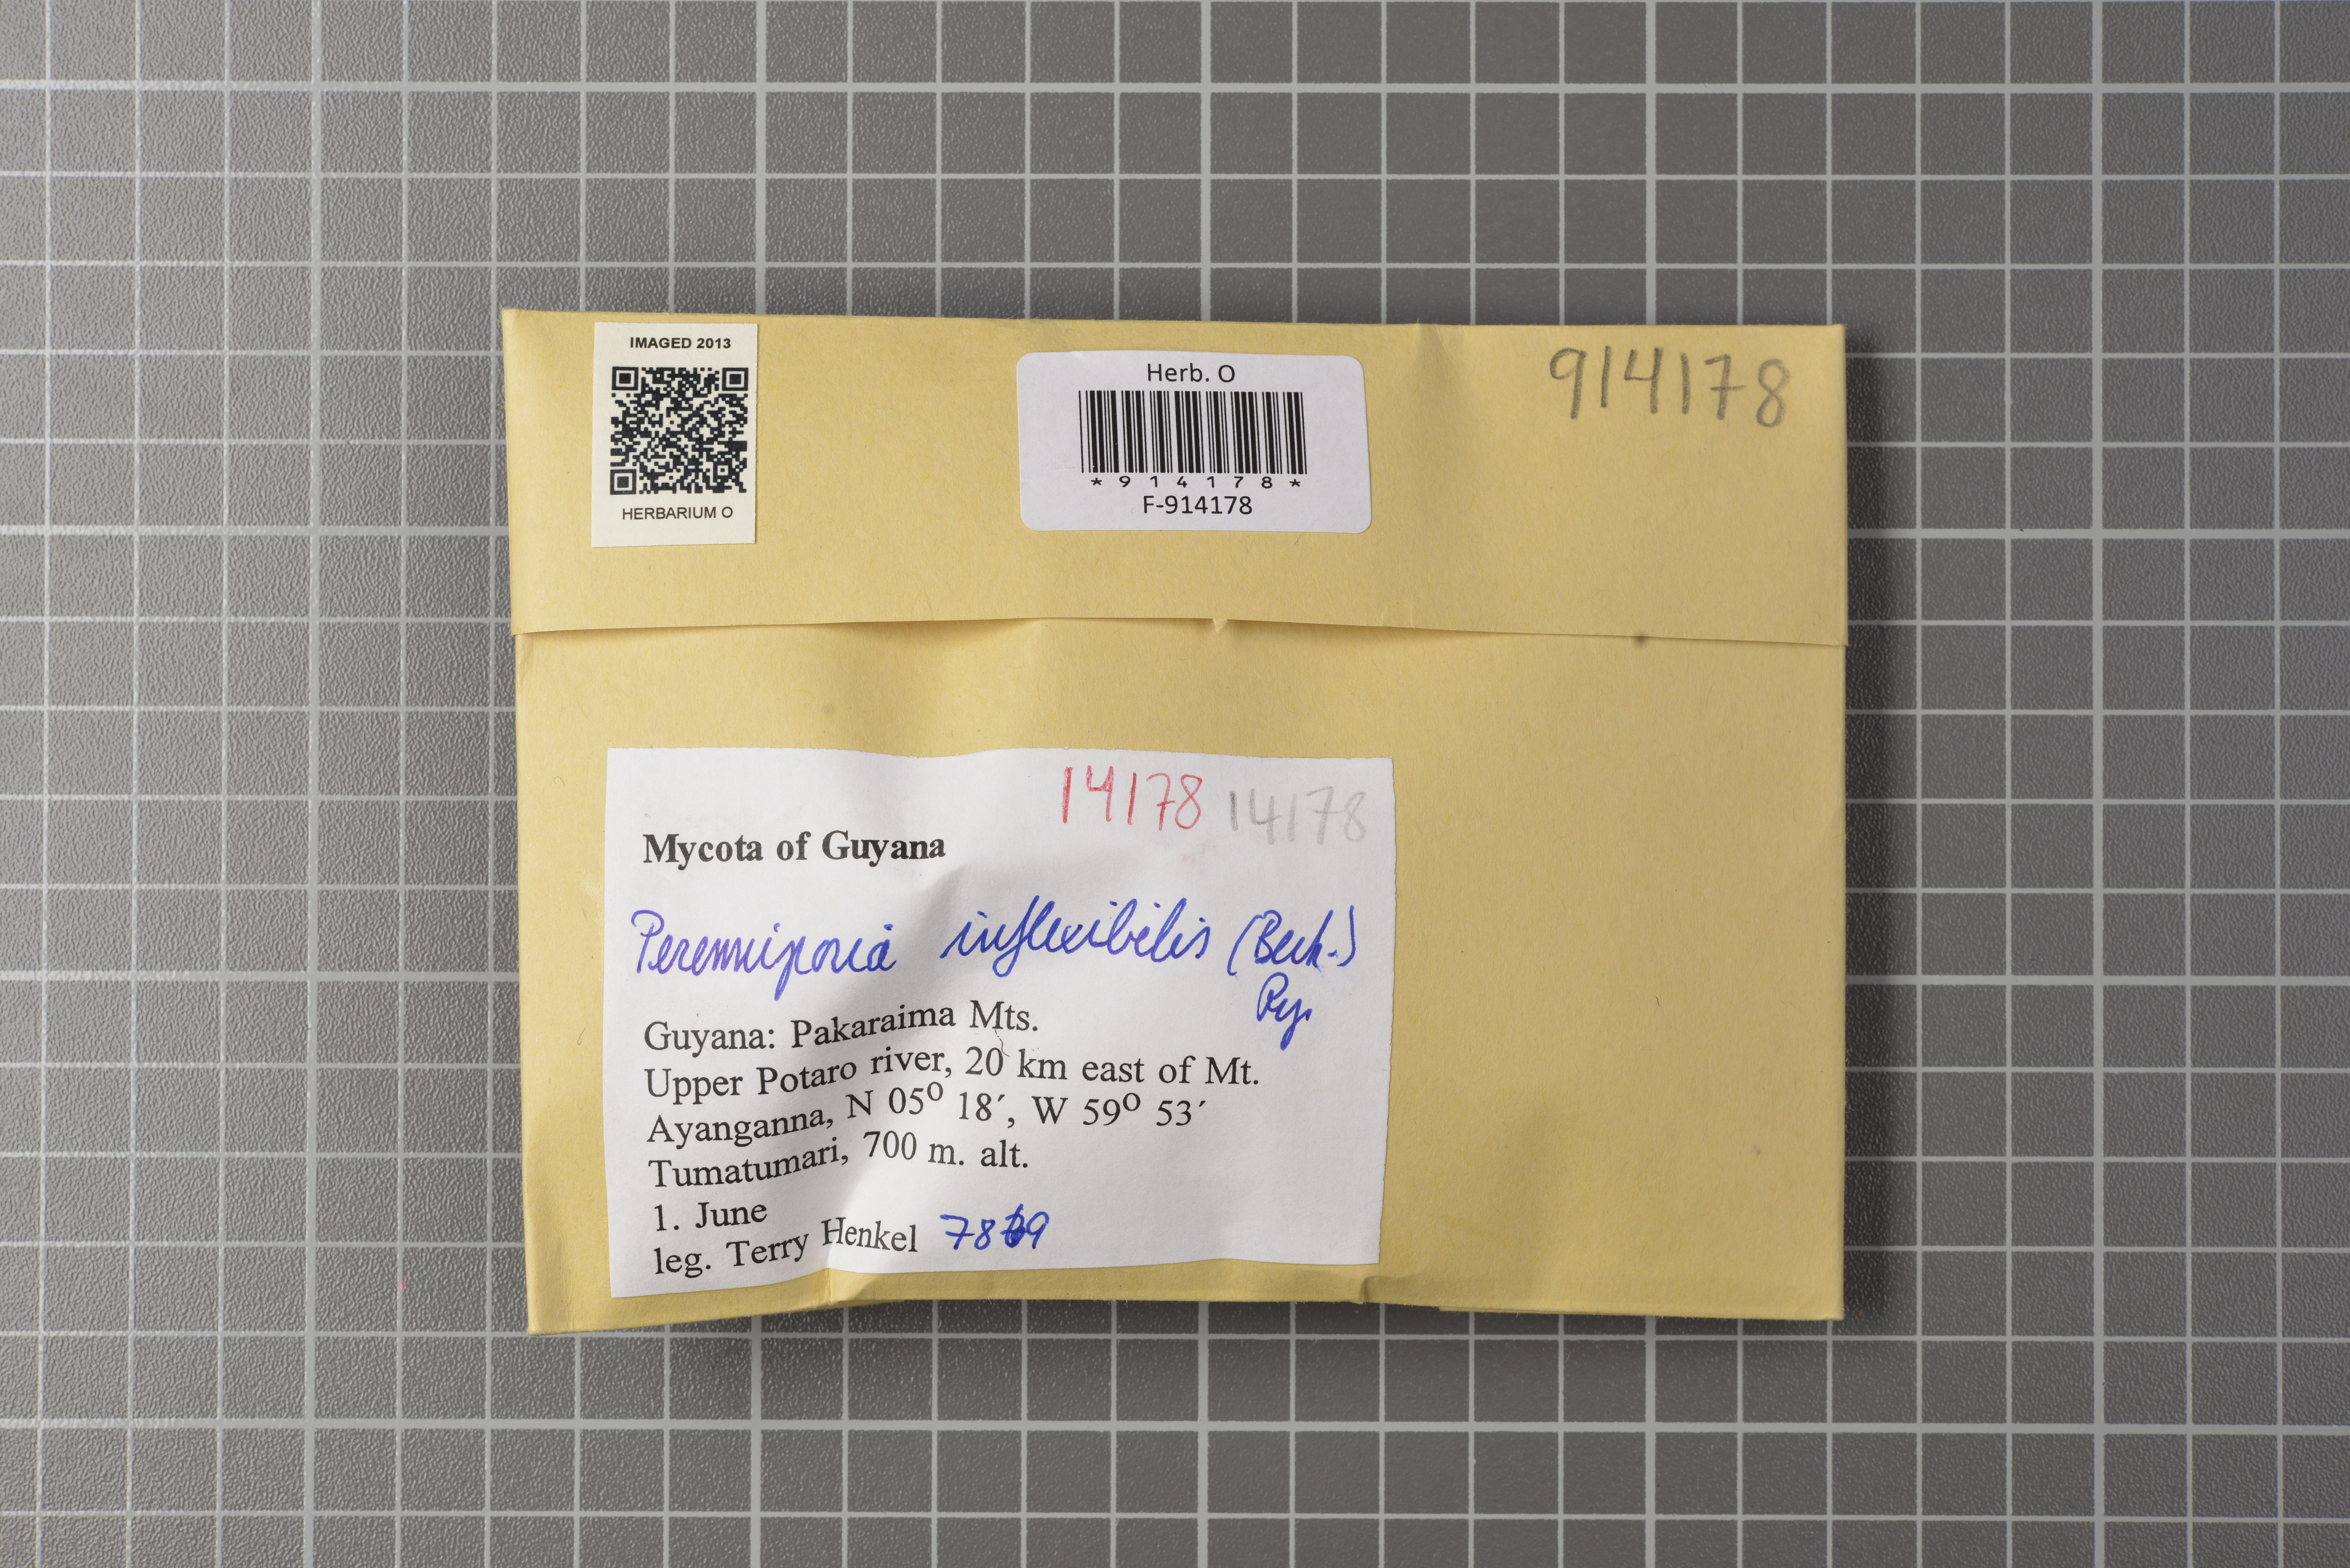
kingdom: Fungi
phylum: Basidiomycota
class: Agaricomycetes
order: Polyporales
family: Polyporaceae
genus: Perenniporia
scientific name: Perenniporia inflexibilis
